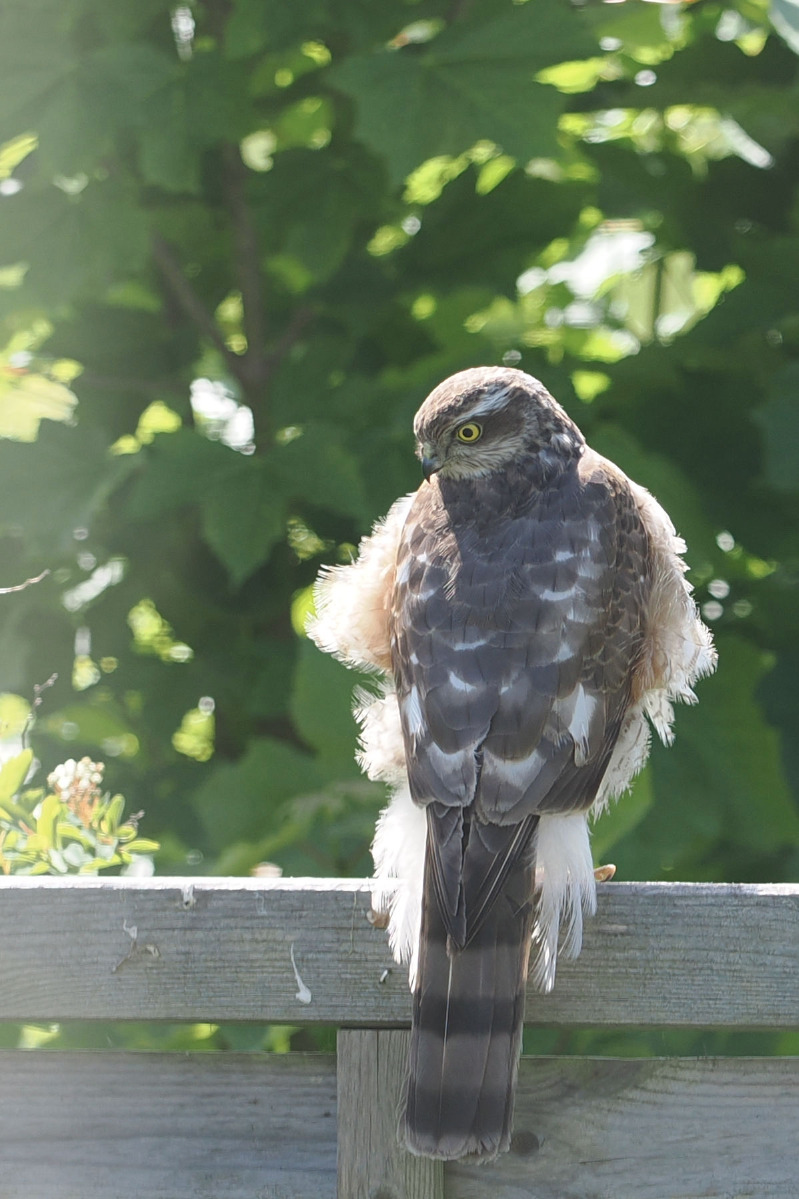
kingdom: Animalia
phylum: Chordata
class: Aves
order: Accipitriformes
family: Accipitridae
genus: Accipiter
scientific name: Accipiter nisus
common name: Spurvehøg
